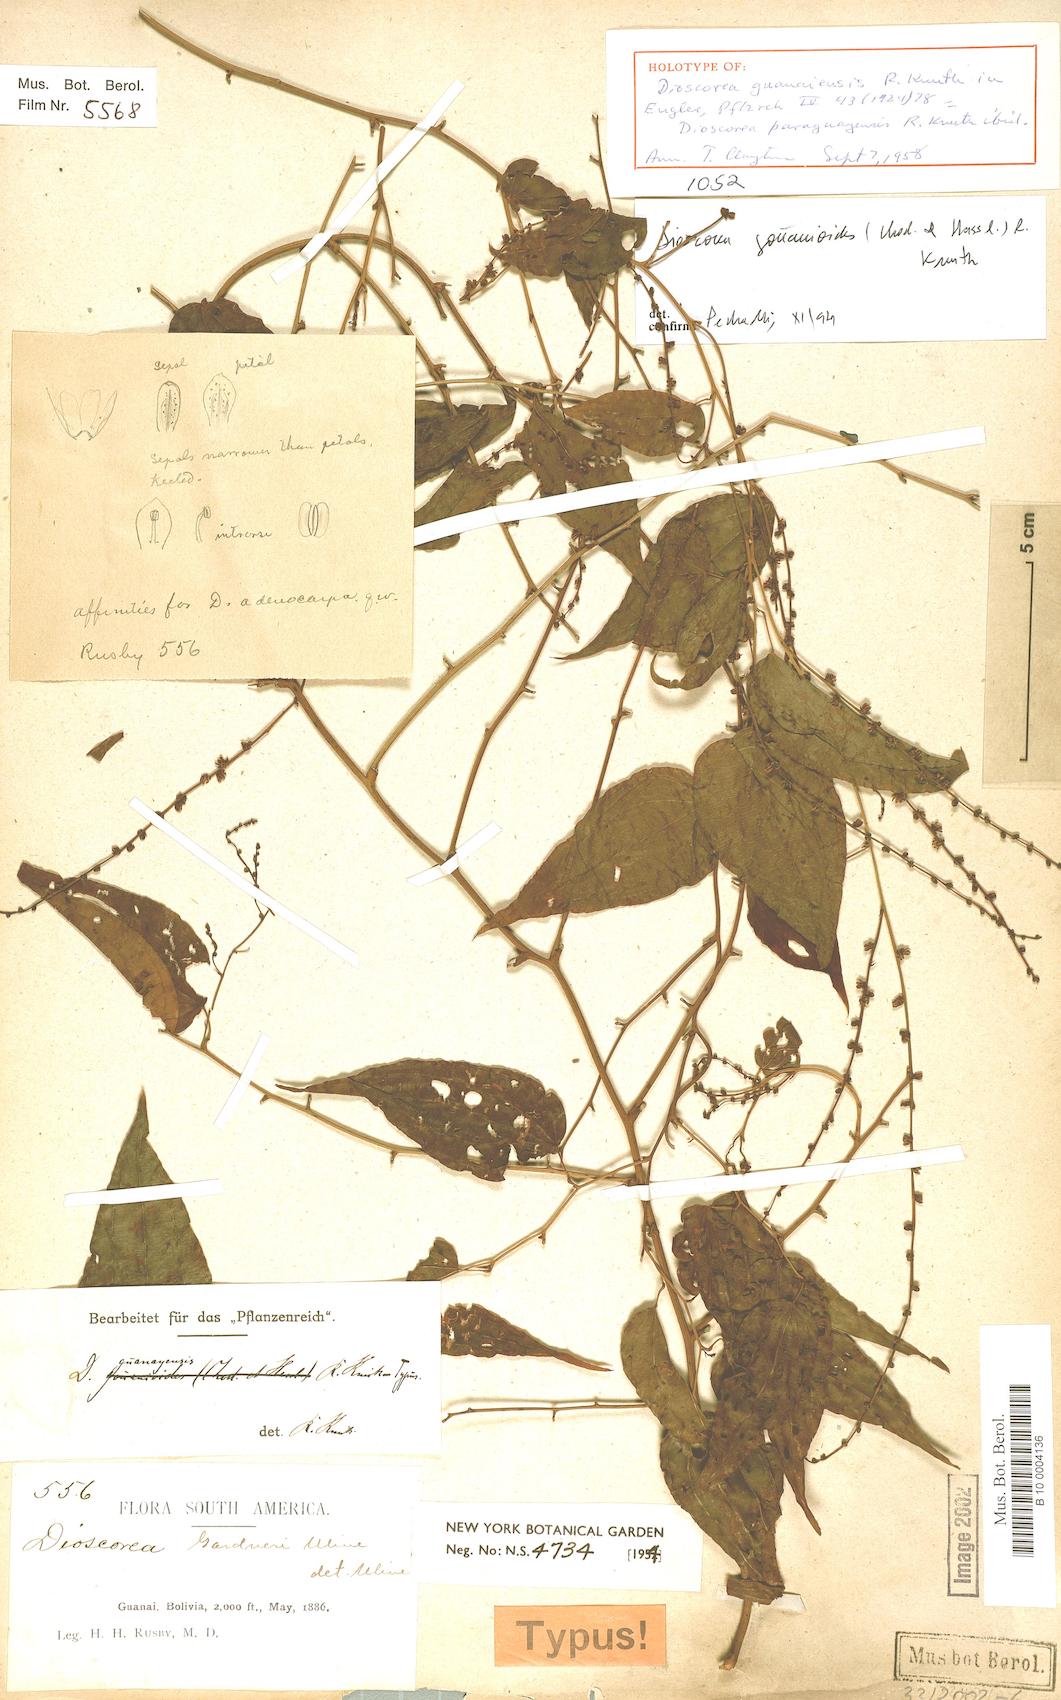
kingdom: Plantae
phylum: Tracheophyta
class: Liliopsida
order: Dioscoreales
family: Dioscoreaceae
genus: Dioscorea
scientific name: Dioscorea acanthogene
